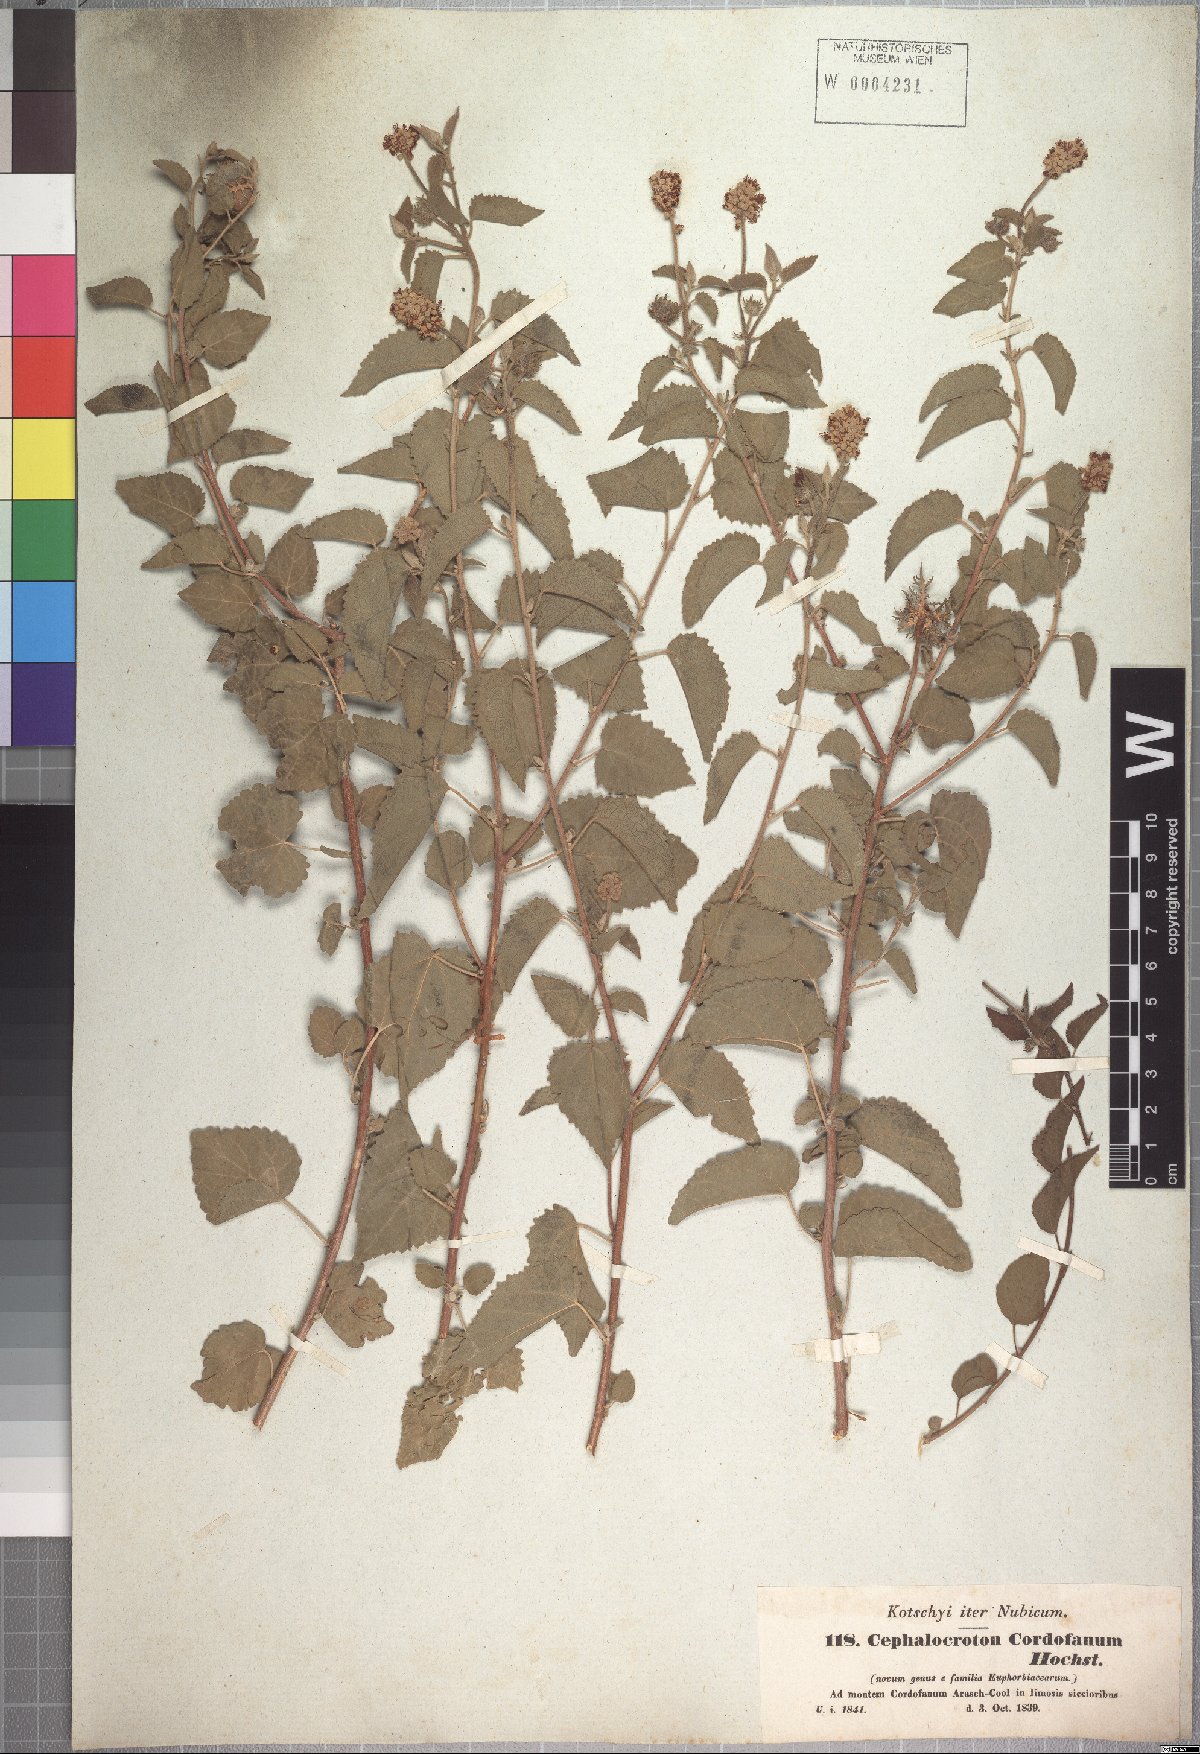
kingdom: Plantae
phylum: Tracheophyta
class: Magnoliopsida
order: Malpighiales
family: Euphorbiaceae
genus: Cephalocroton
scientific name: Cephalocroton cordofanus
